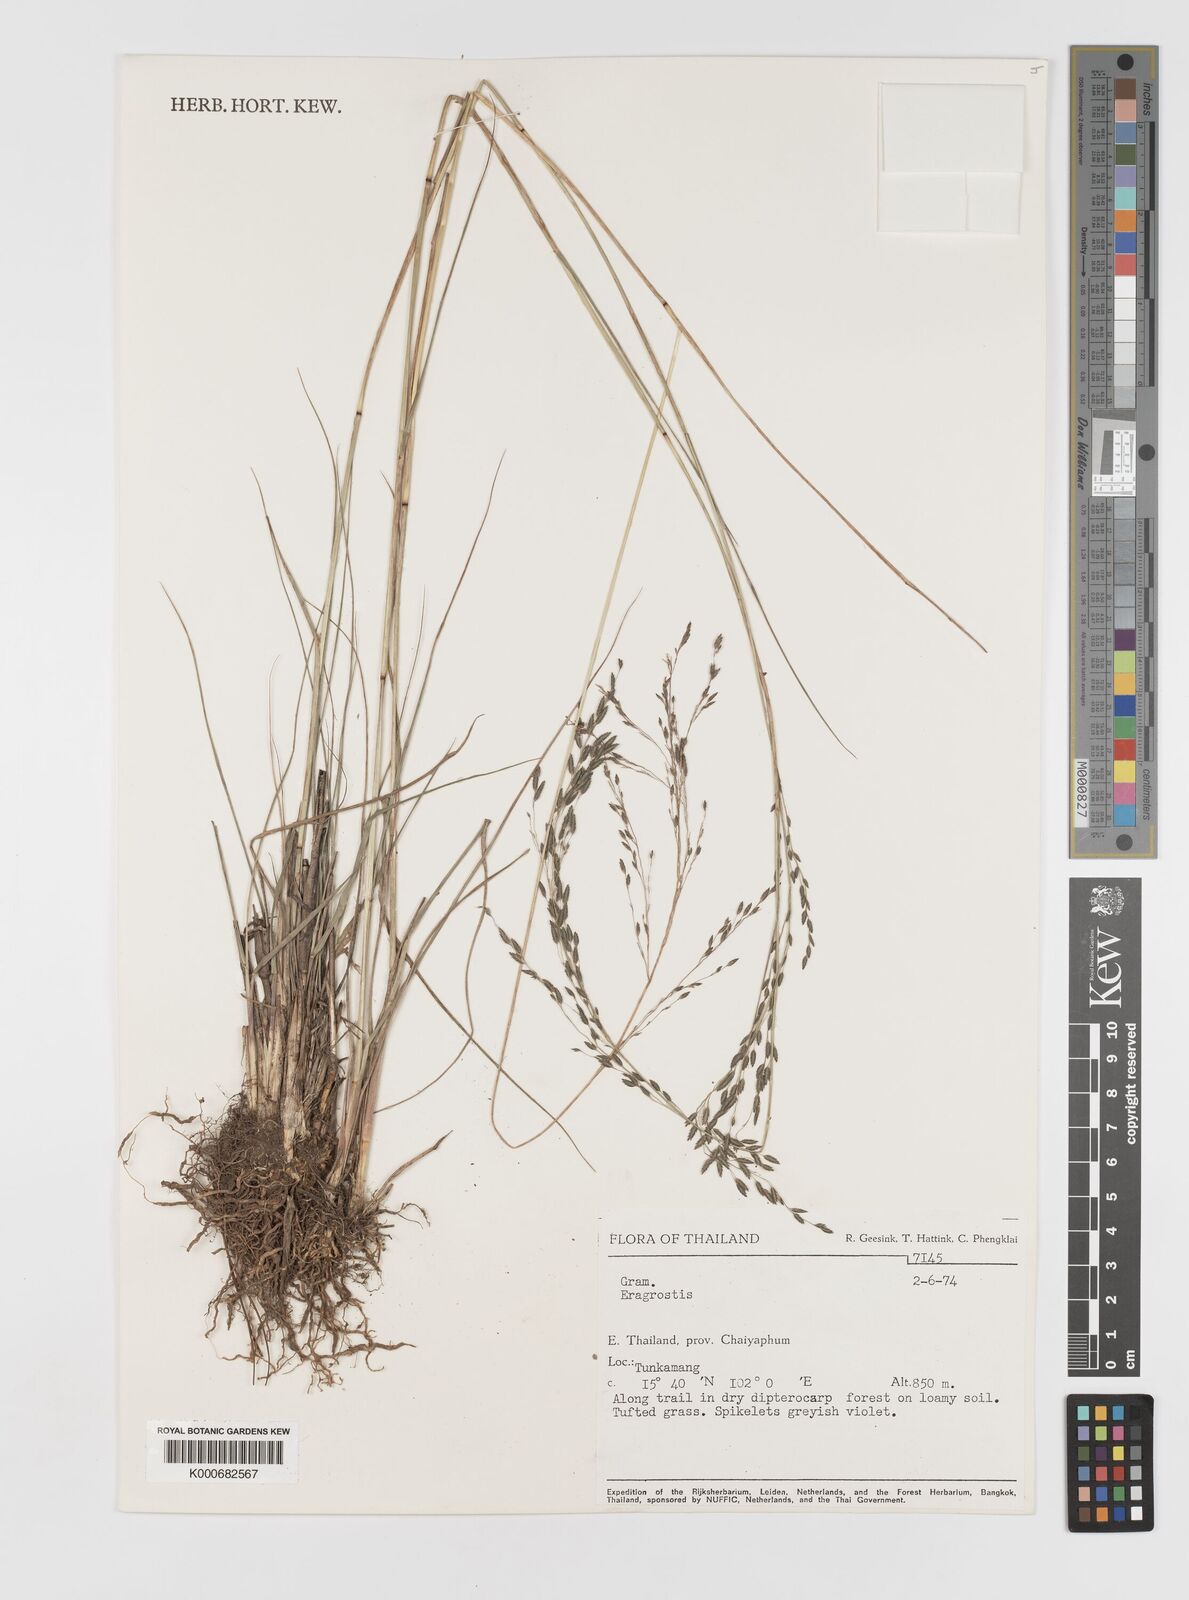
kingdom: Plantae
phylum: Tracheophyta
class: Liliopsida
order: Poales
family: Poaceae
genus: Eragrostis
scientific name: Eragrostis
